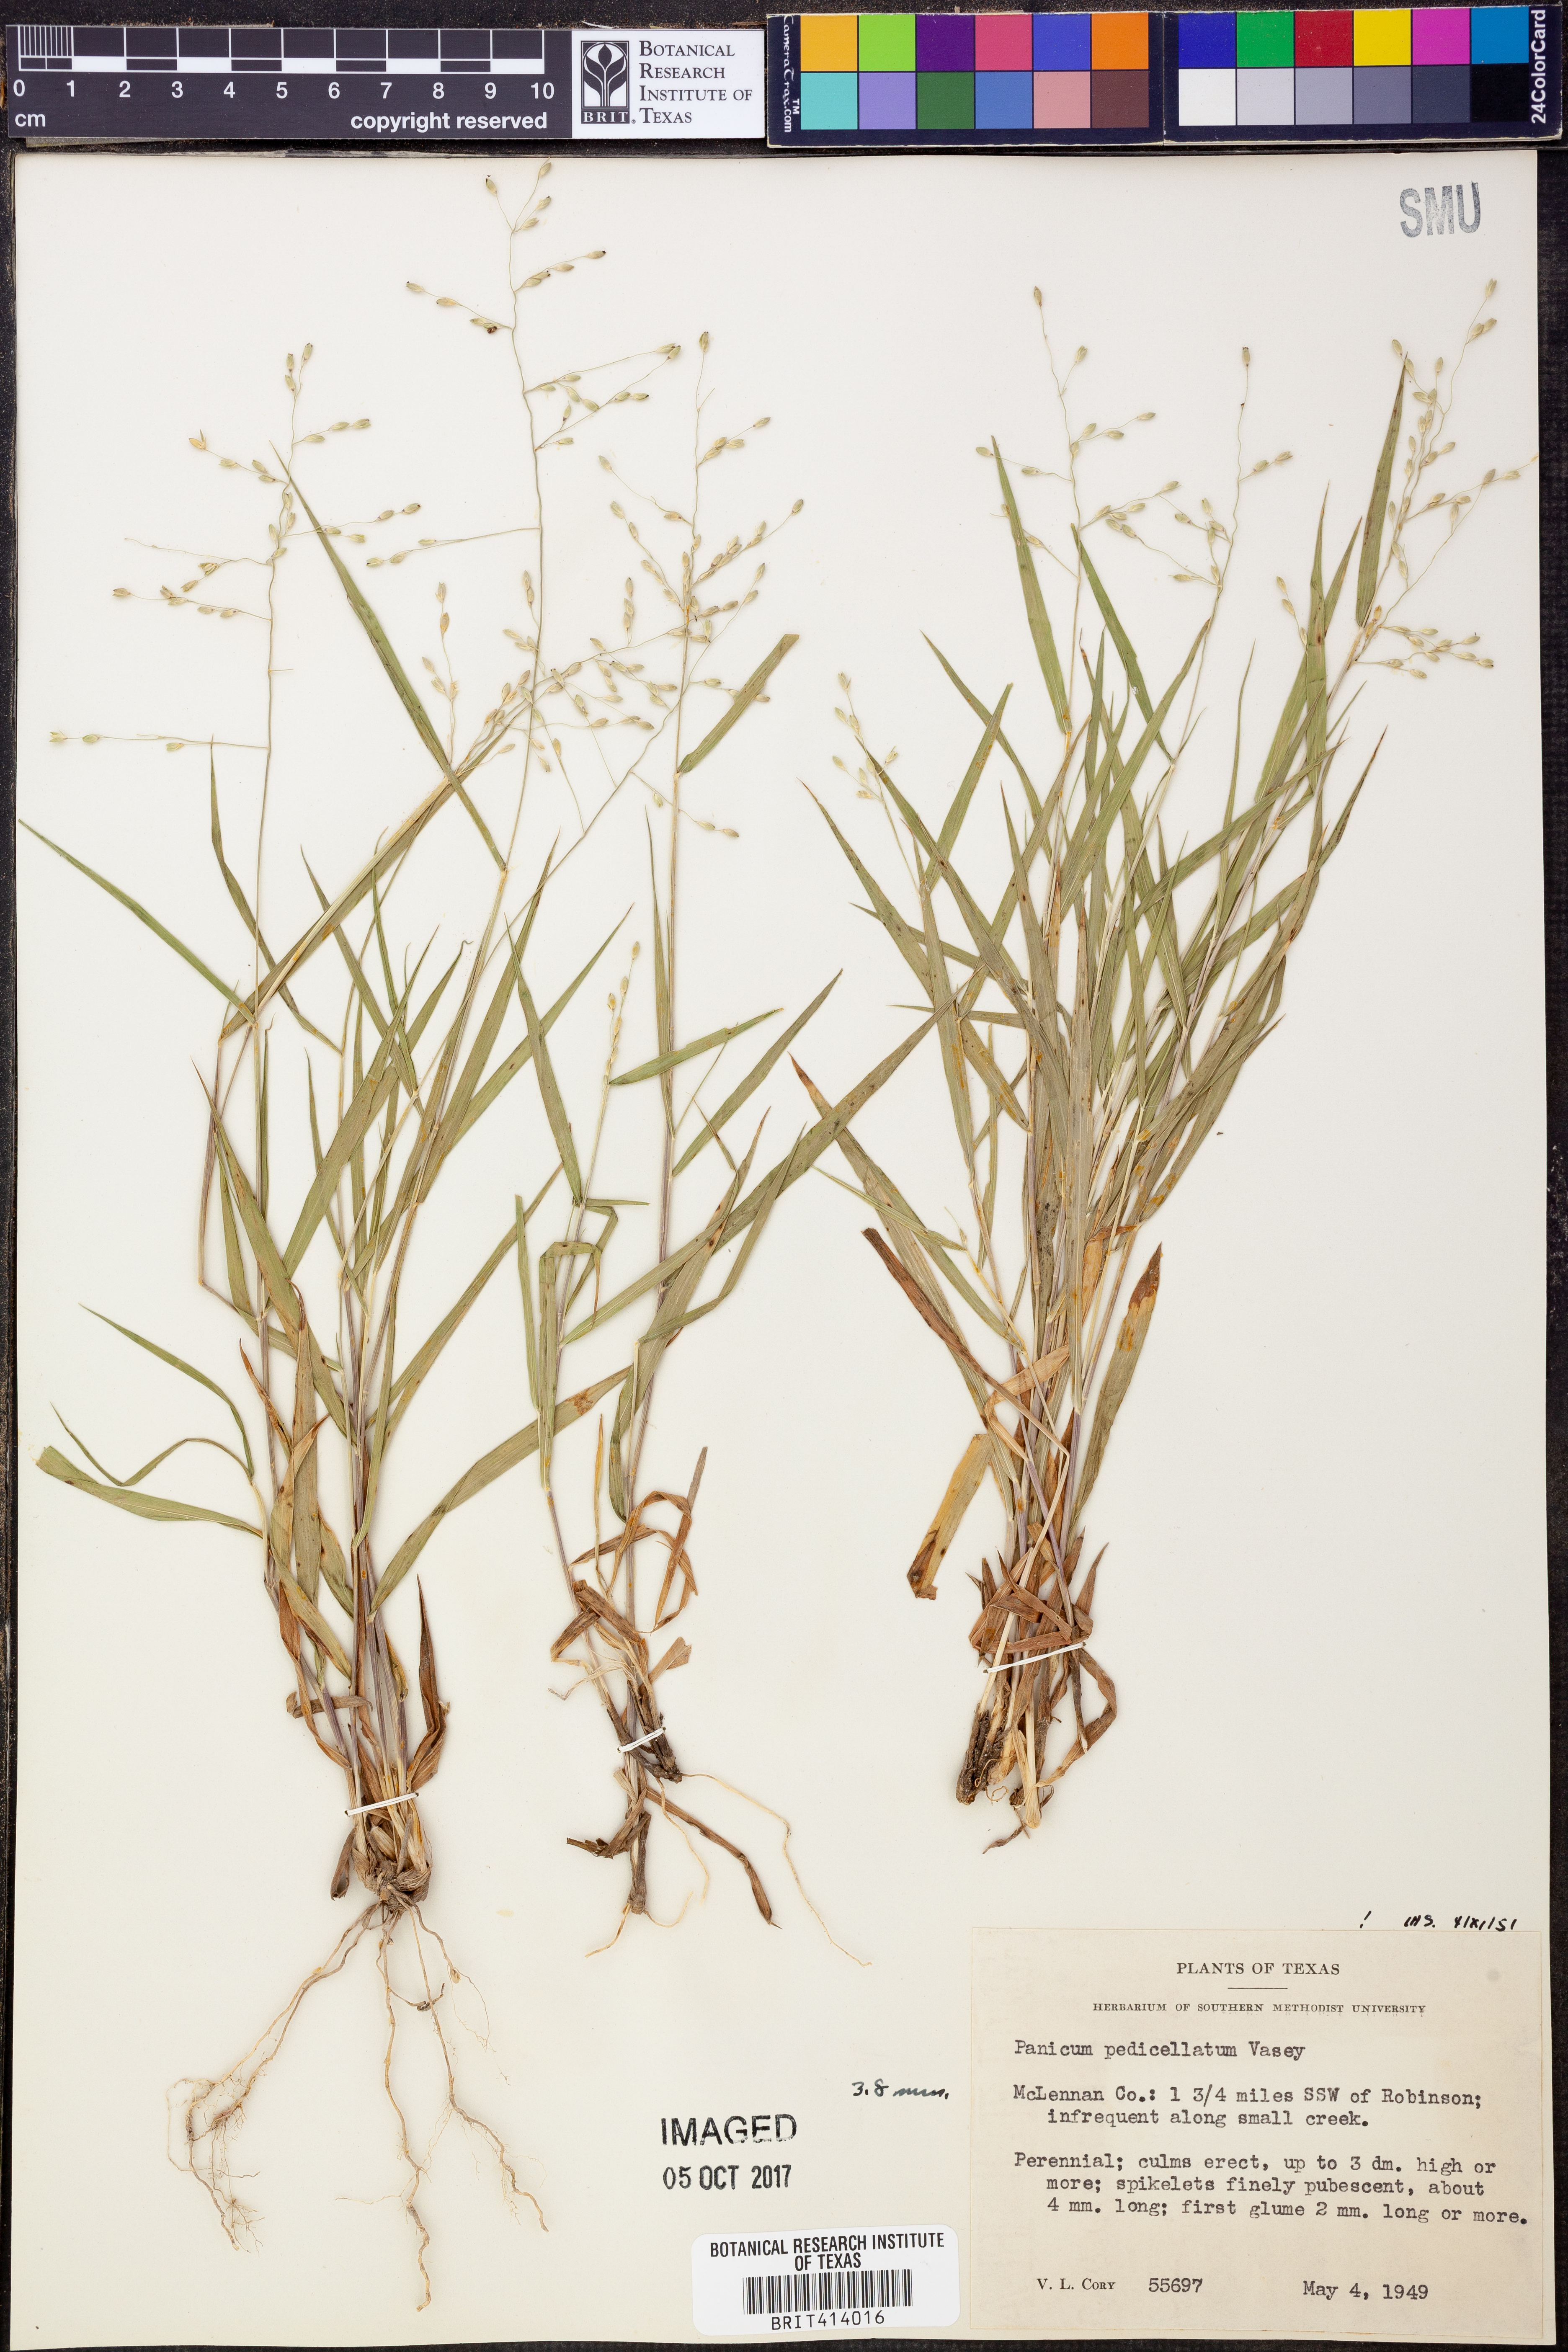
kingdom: Plantae
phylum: Tracheophyta
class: Liliopsida
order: Poales
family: Poaceae
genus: Dichanthelium
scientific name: Dichanthelium transiens
